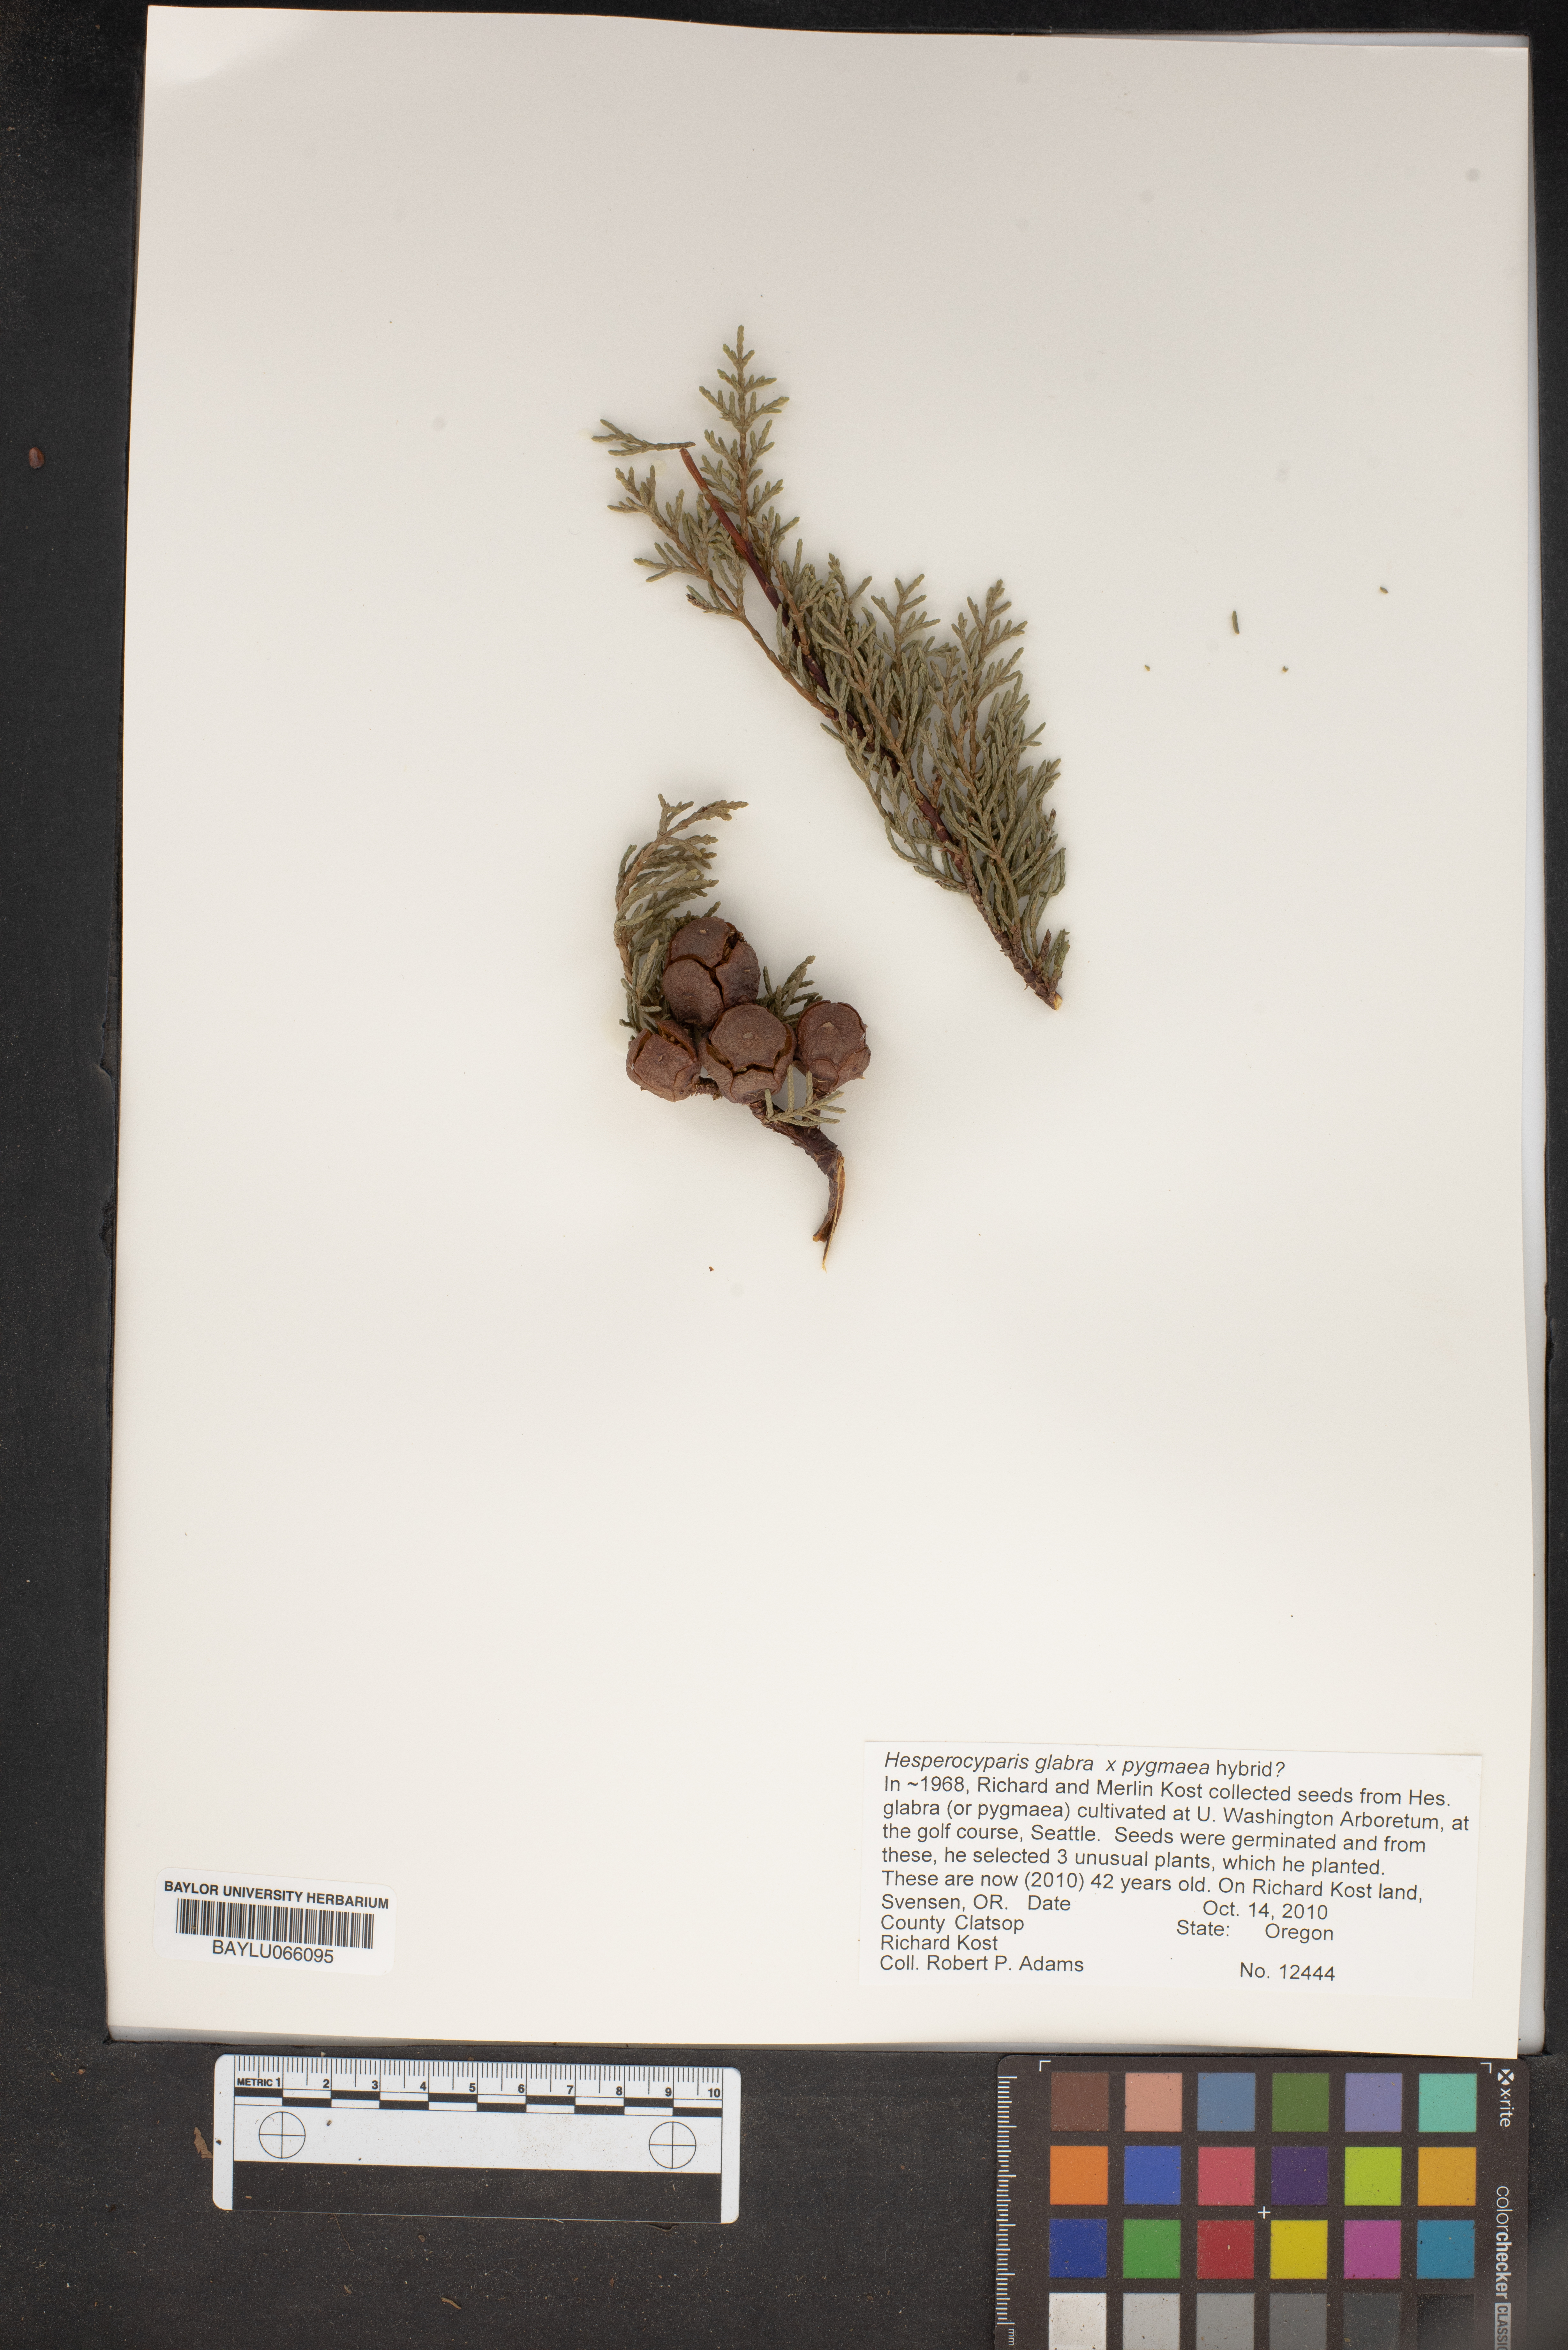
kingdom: Plantae
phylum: Tracheophyta
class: Pinopsida
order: Pinales
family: Cupressaceae
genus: Cupressus
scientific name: Cupressus goveniana
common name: Gowen cypress
